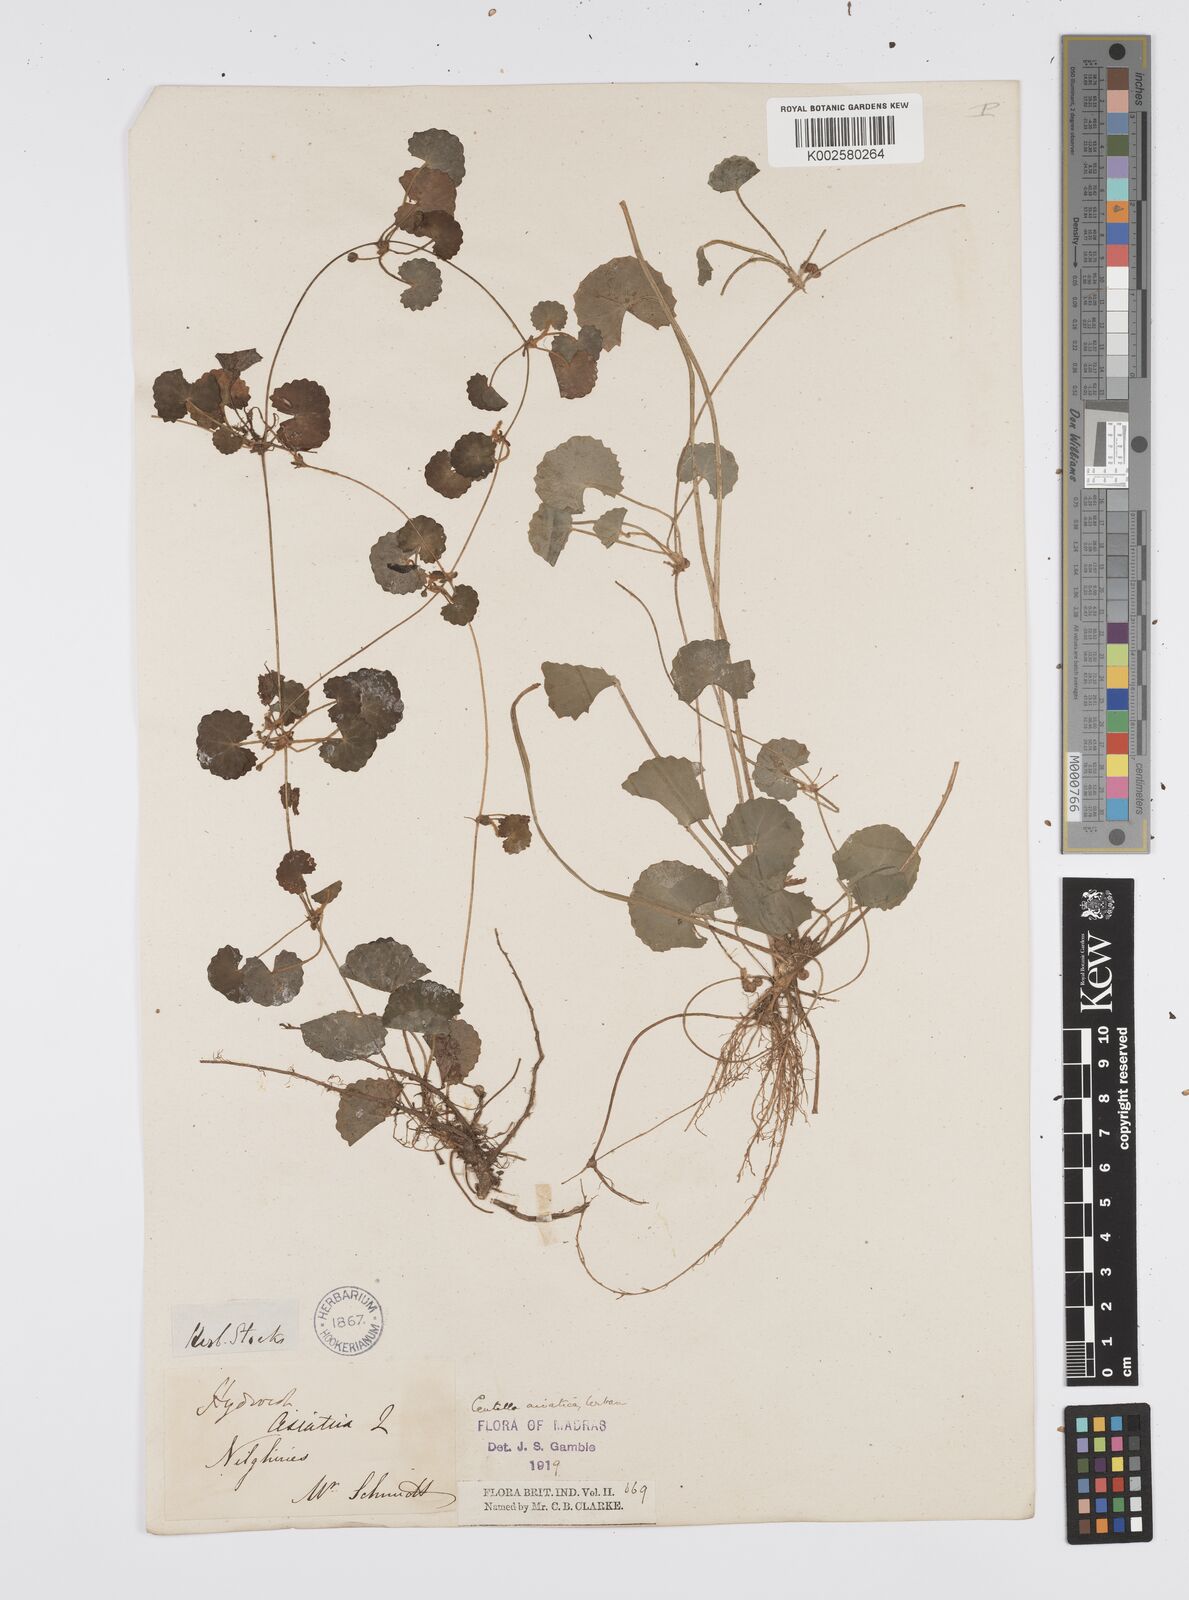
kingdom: Plantae
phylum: Tracheophyta
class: Magnoliopsida
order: Apiales
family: Apiaceae
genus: Centella
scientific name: Centella asiatica
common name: Spadeleaf
